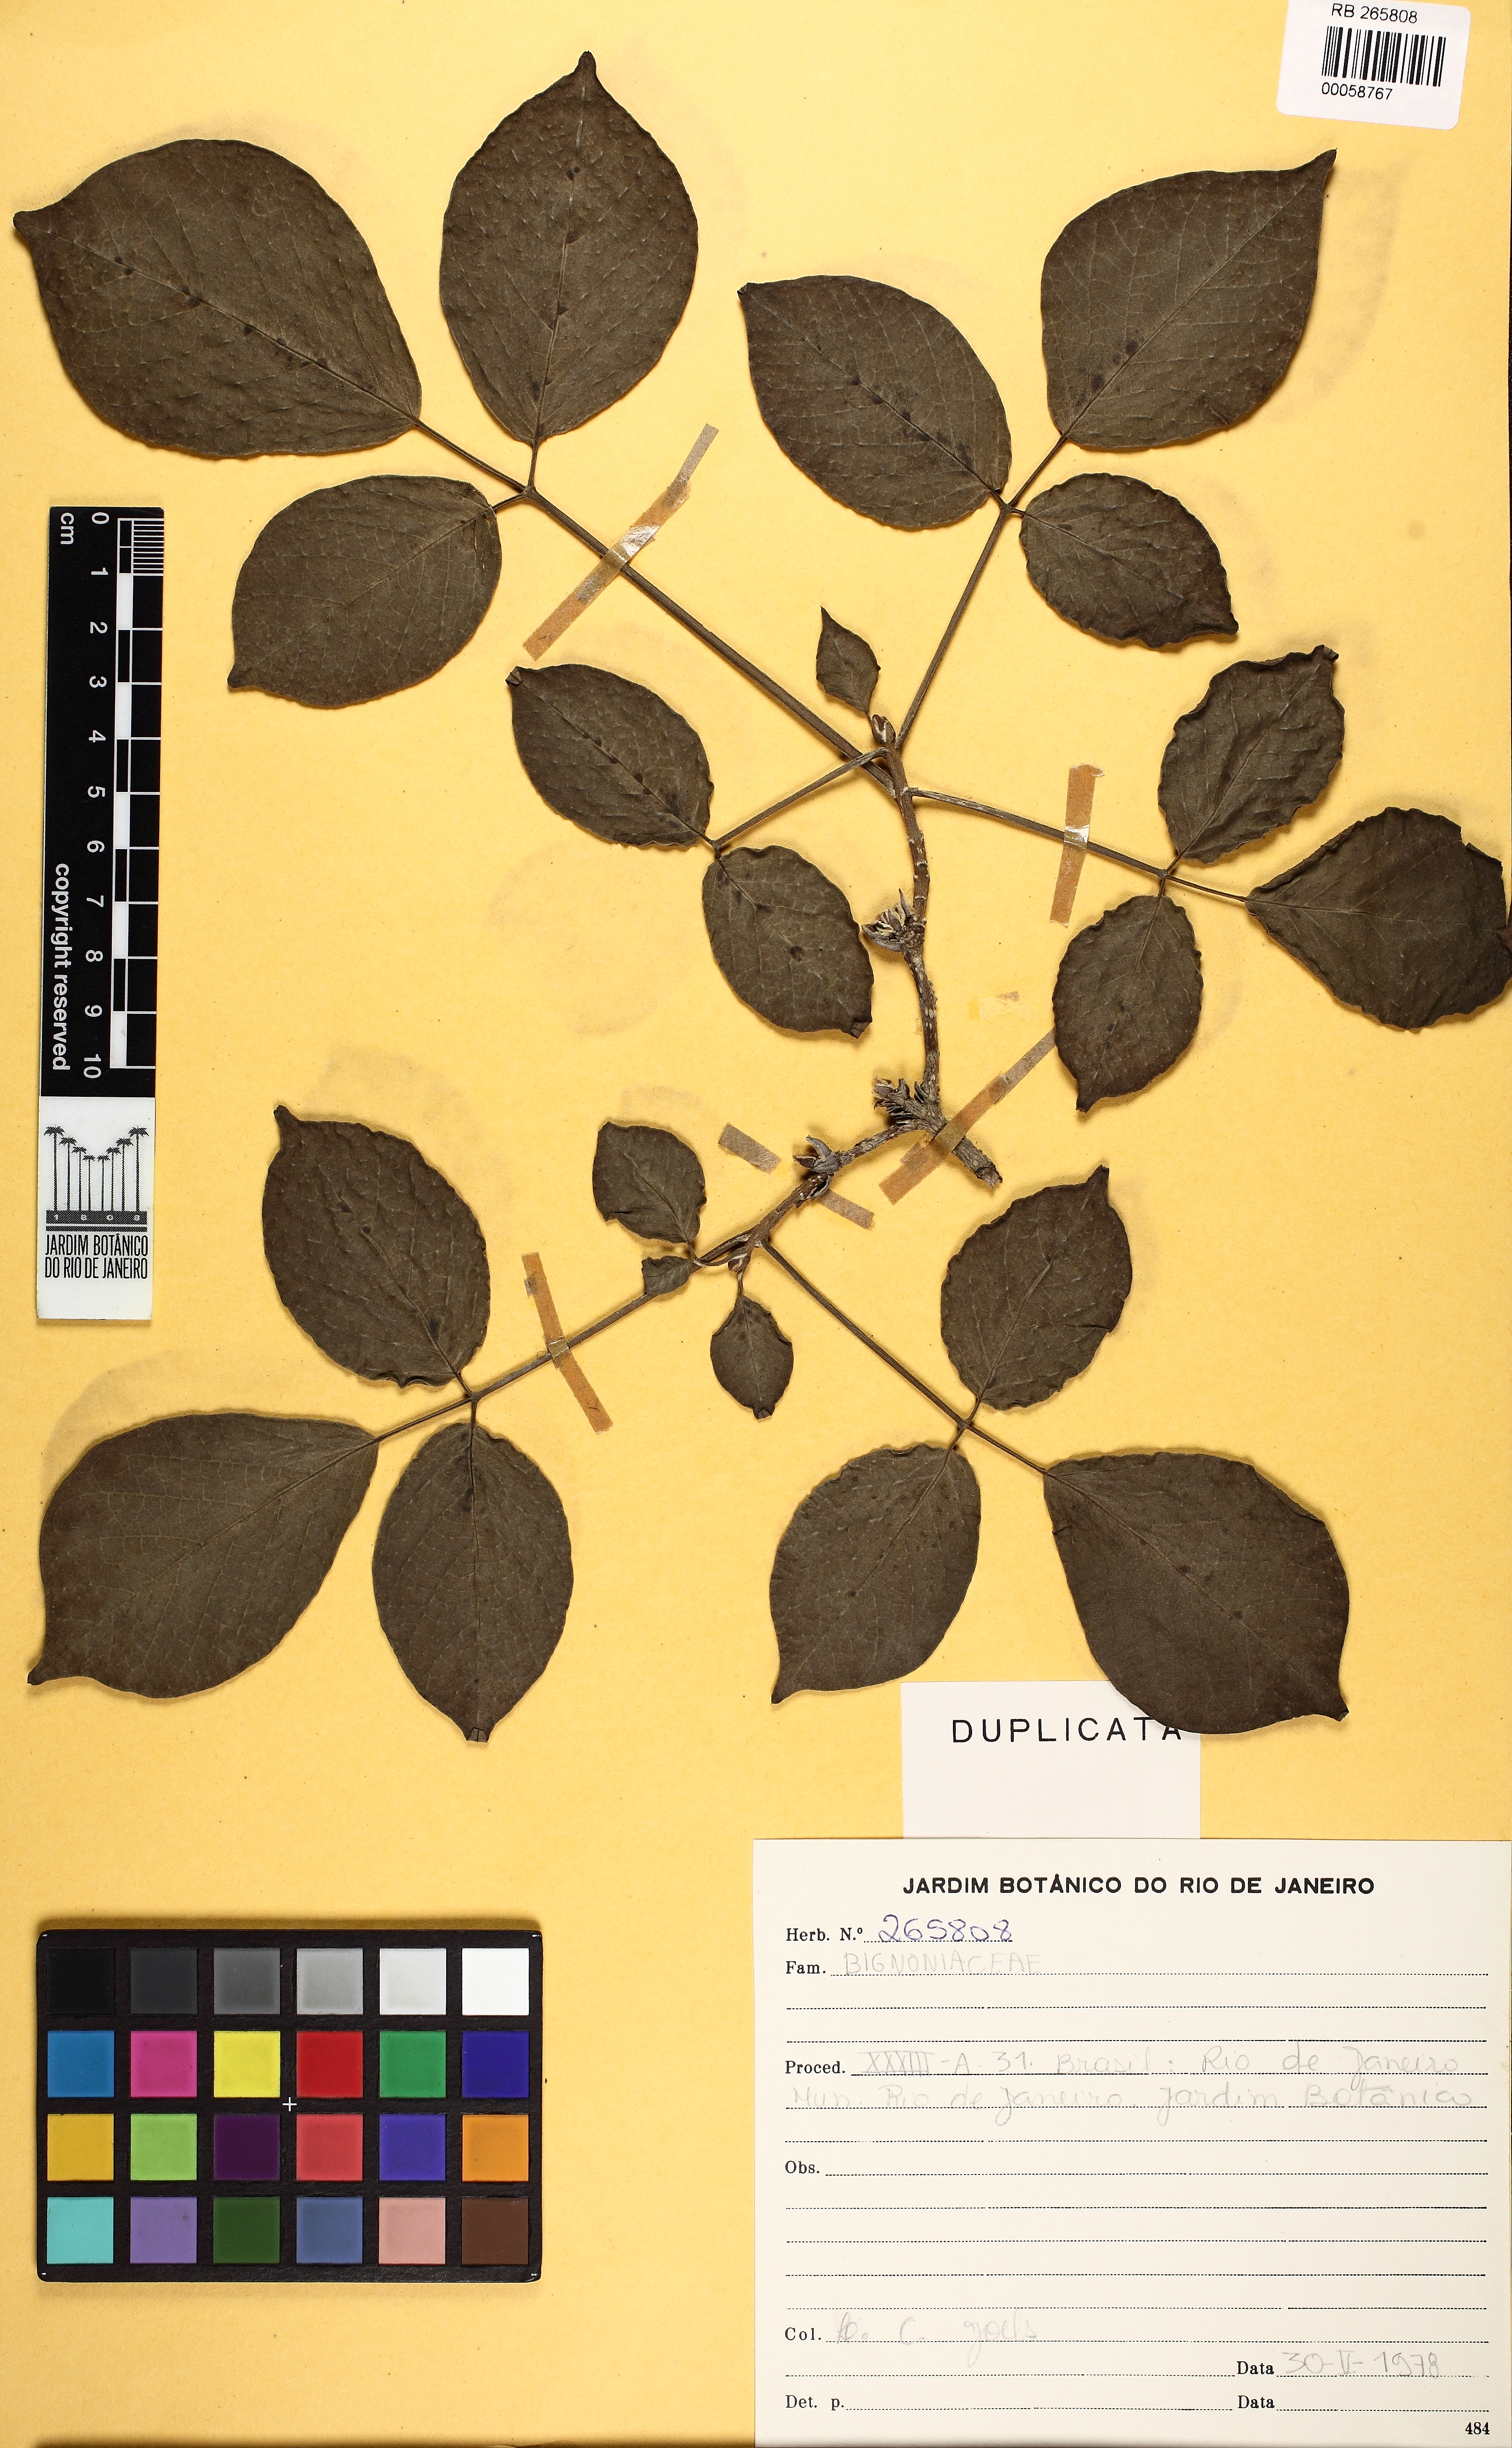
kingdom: Plantae
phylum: Tracheophyta
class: Magnoliopsida
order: Lamiales
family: Bignoniaceae
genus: Tabebuia
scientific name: Tabebuia roseoalba
